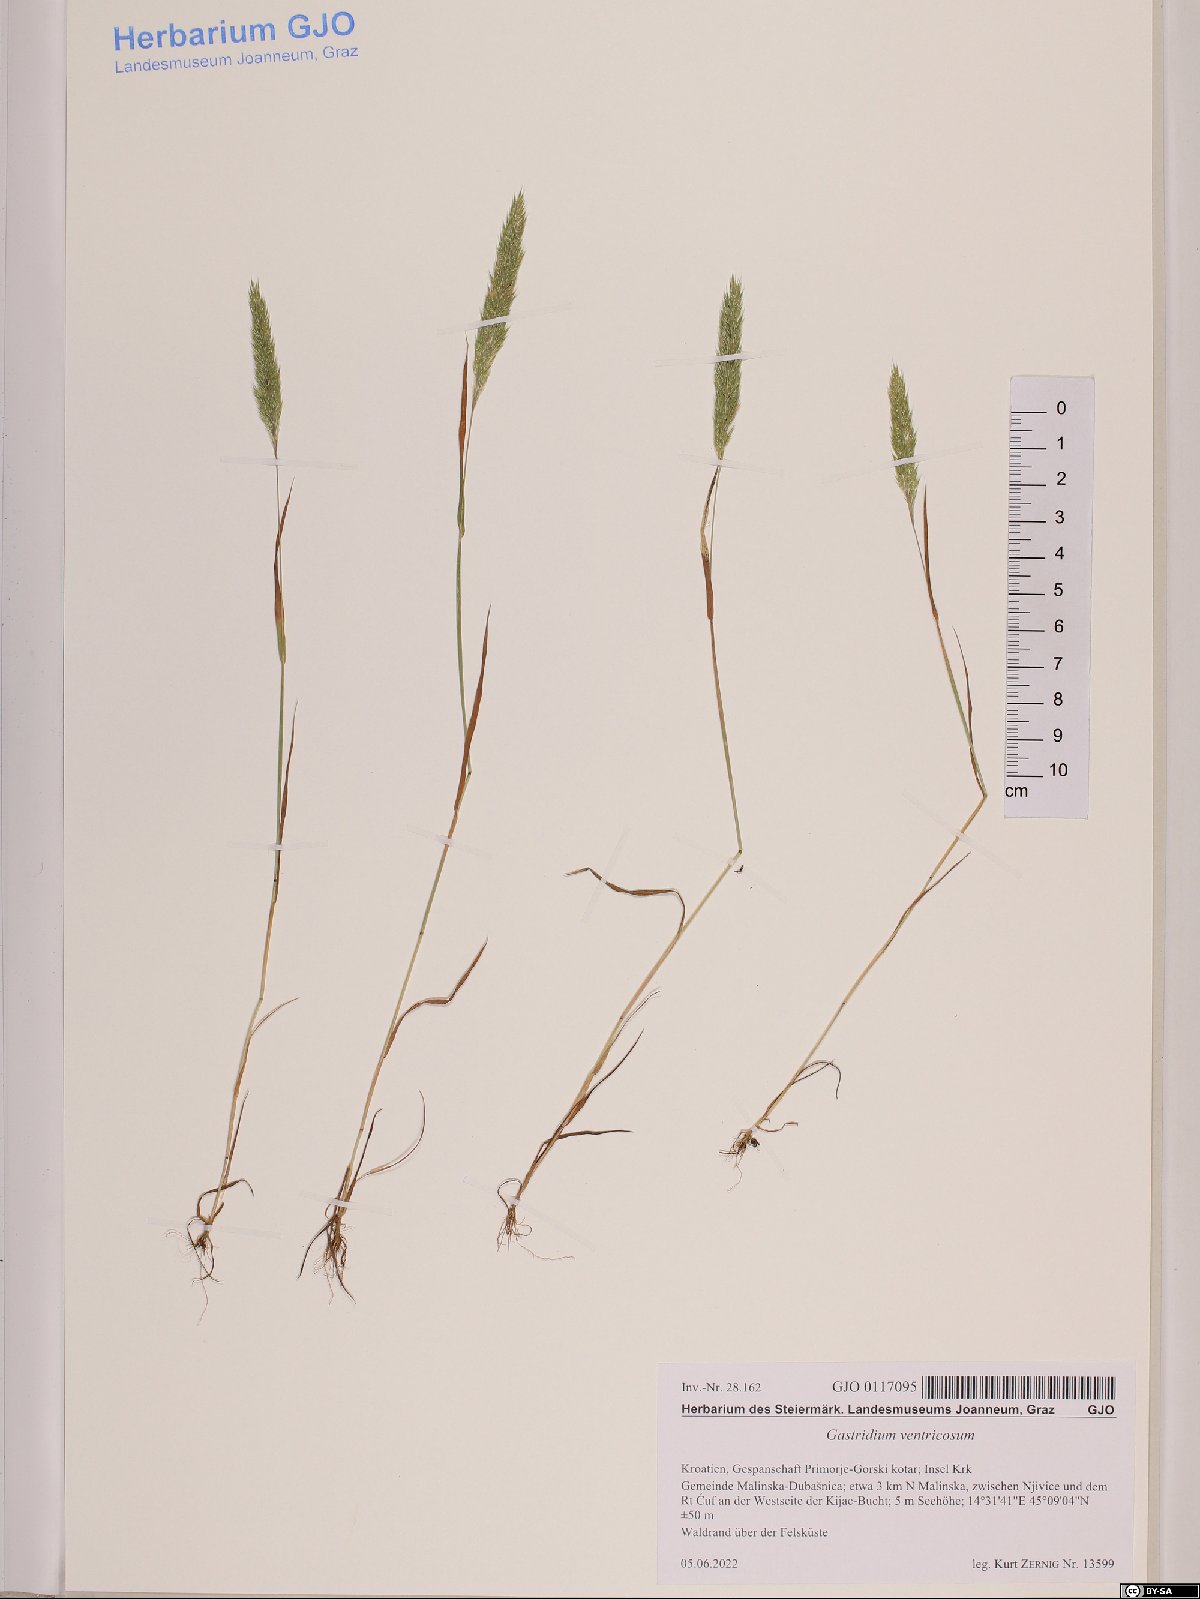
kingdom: Plantae
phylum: Tracheophyta
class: Liliopsida
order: Poales
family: Poaceae
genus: Gastridium
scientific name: Gastridium ventricosum
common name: Nit-grass
